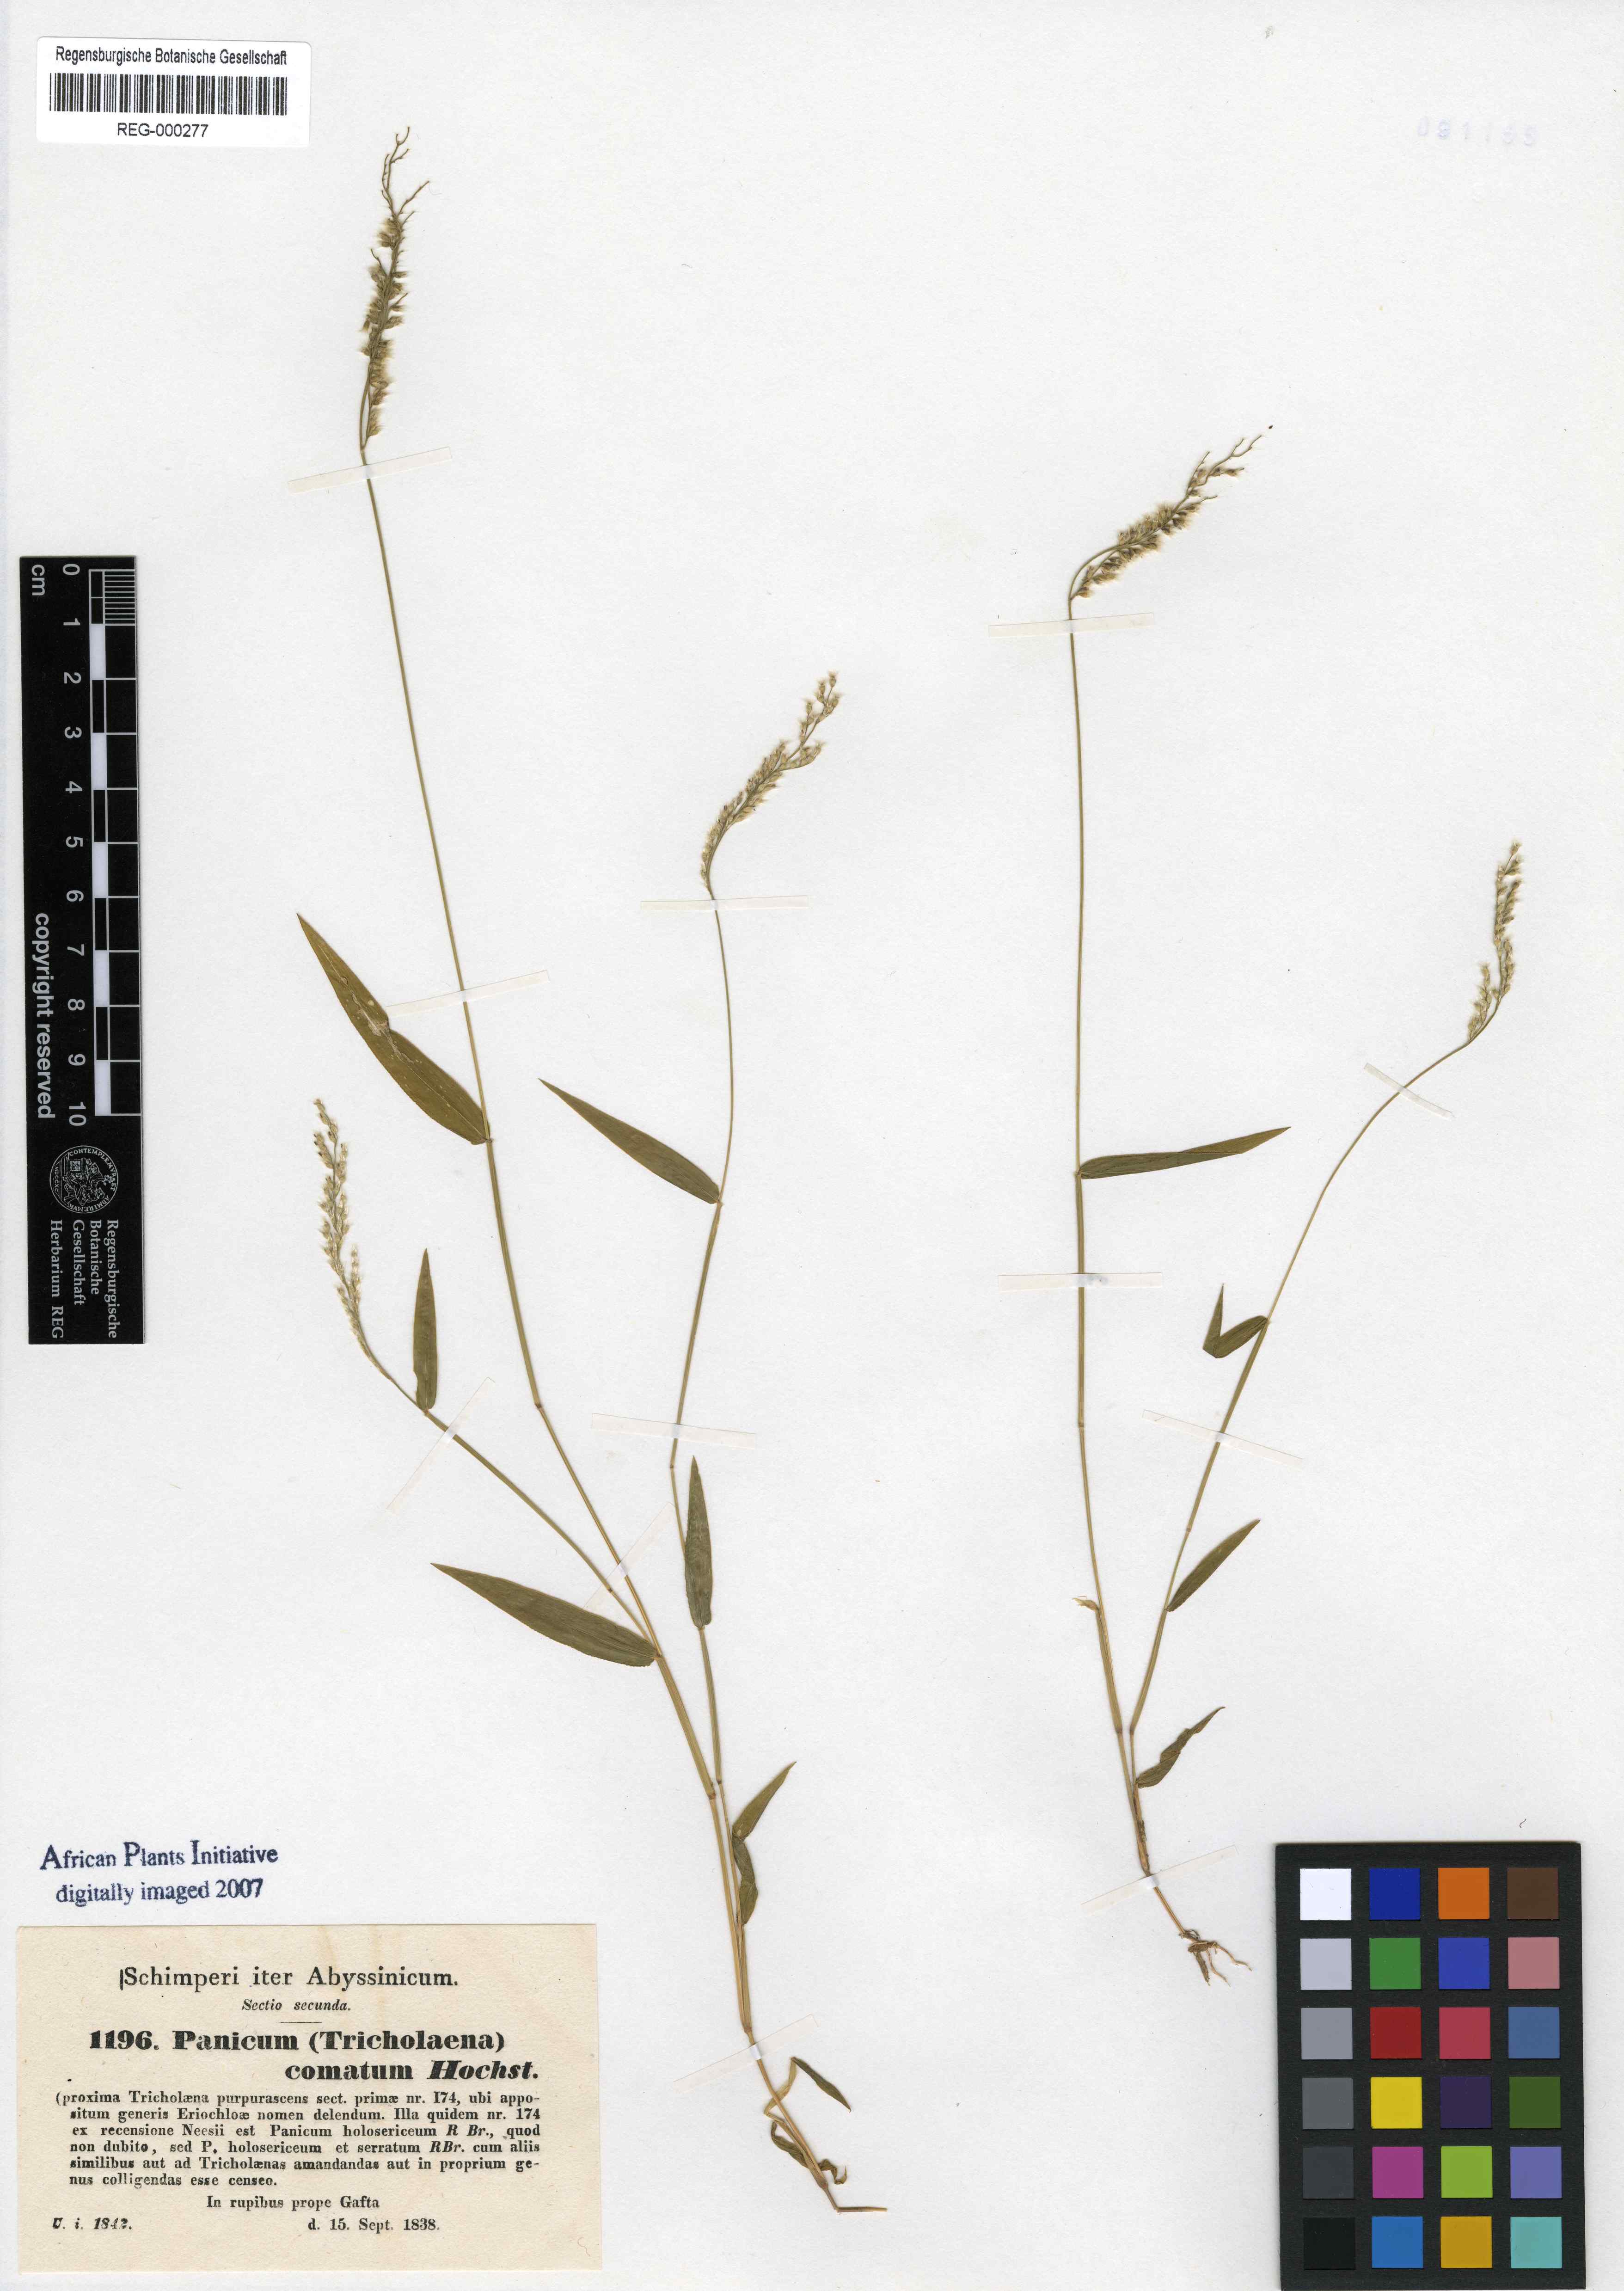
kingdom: Plantae
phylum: Tracheophyta
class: Liliopsida
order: Poales
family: Poaceae
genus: Urochloa
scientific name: Urochloa comata
